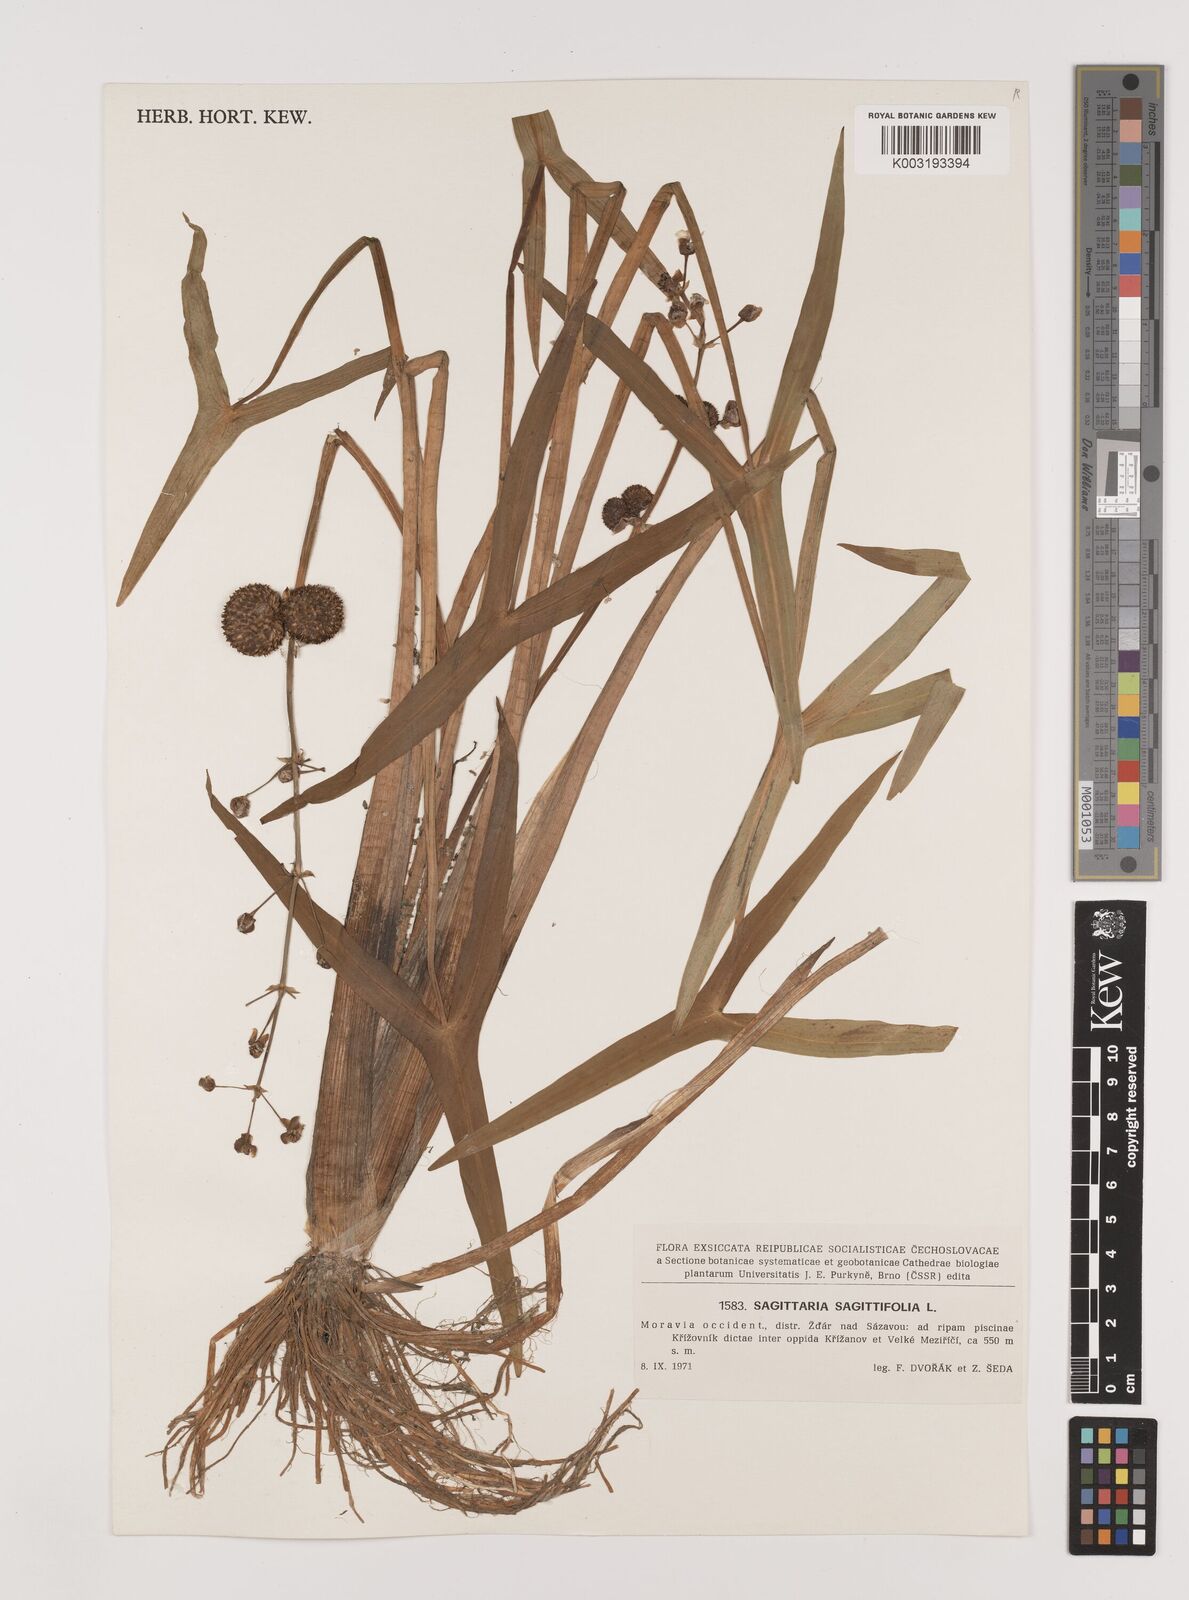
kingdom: Plantae
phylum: Tracheophyta
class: Liliopsida
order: Alismatales
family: Alismataceae
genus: Sagittaria
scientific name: Sagittaria sagittifolia
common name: Arrowhead
